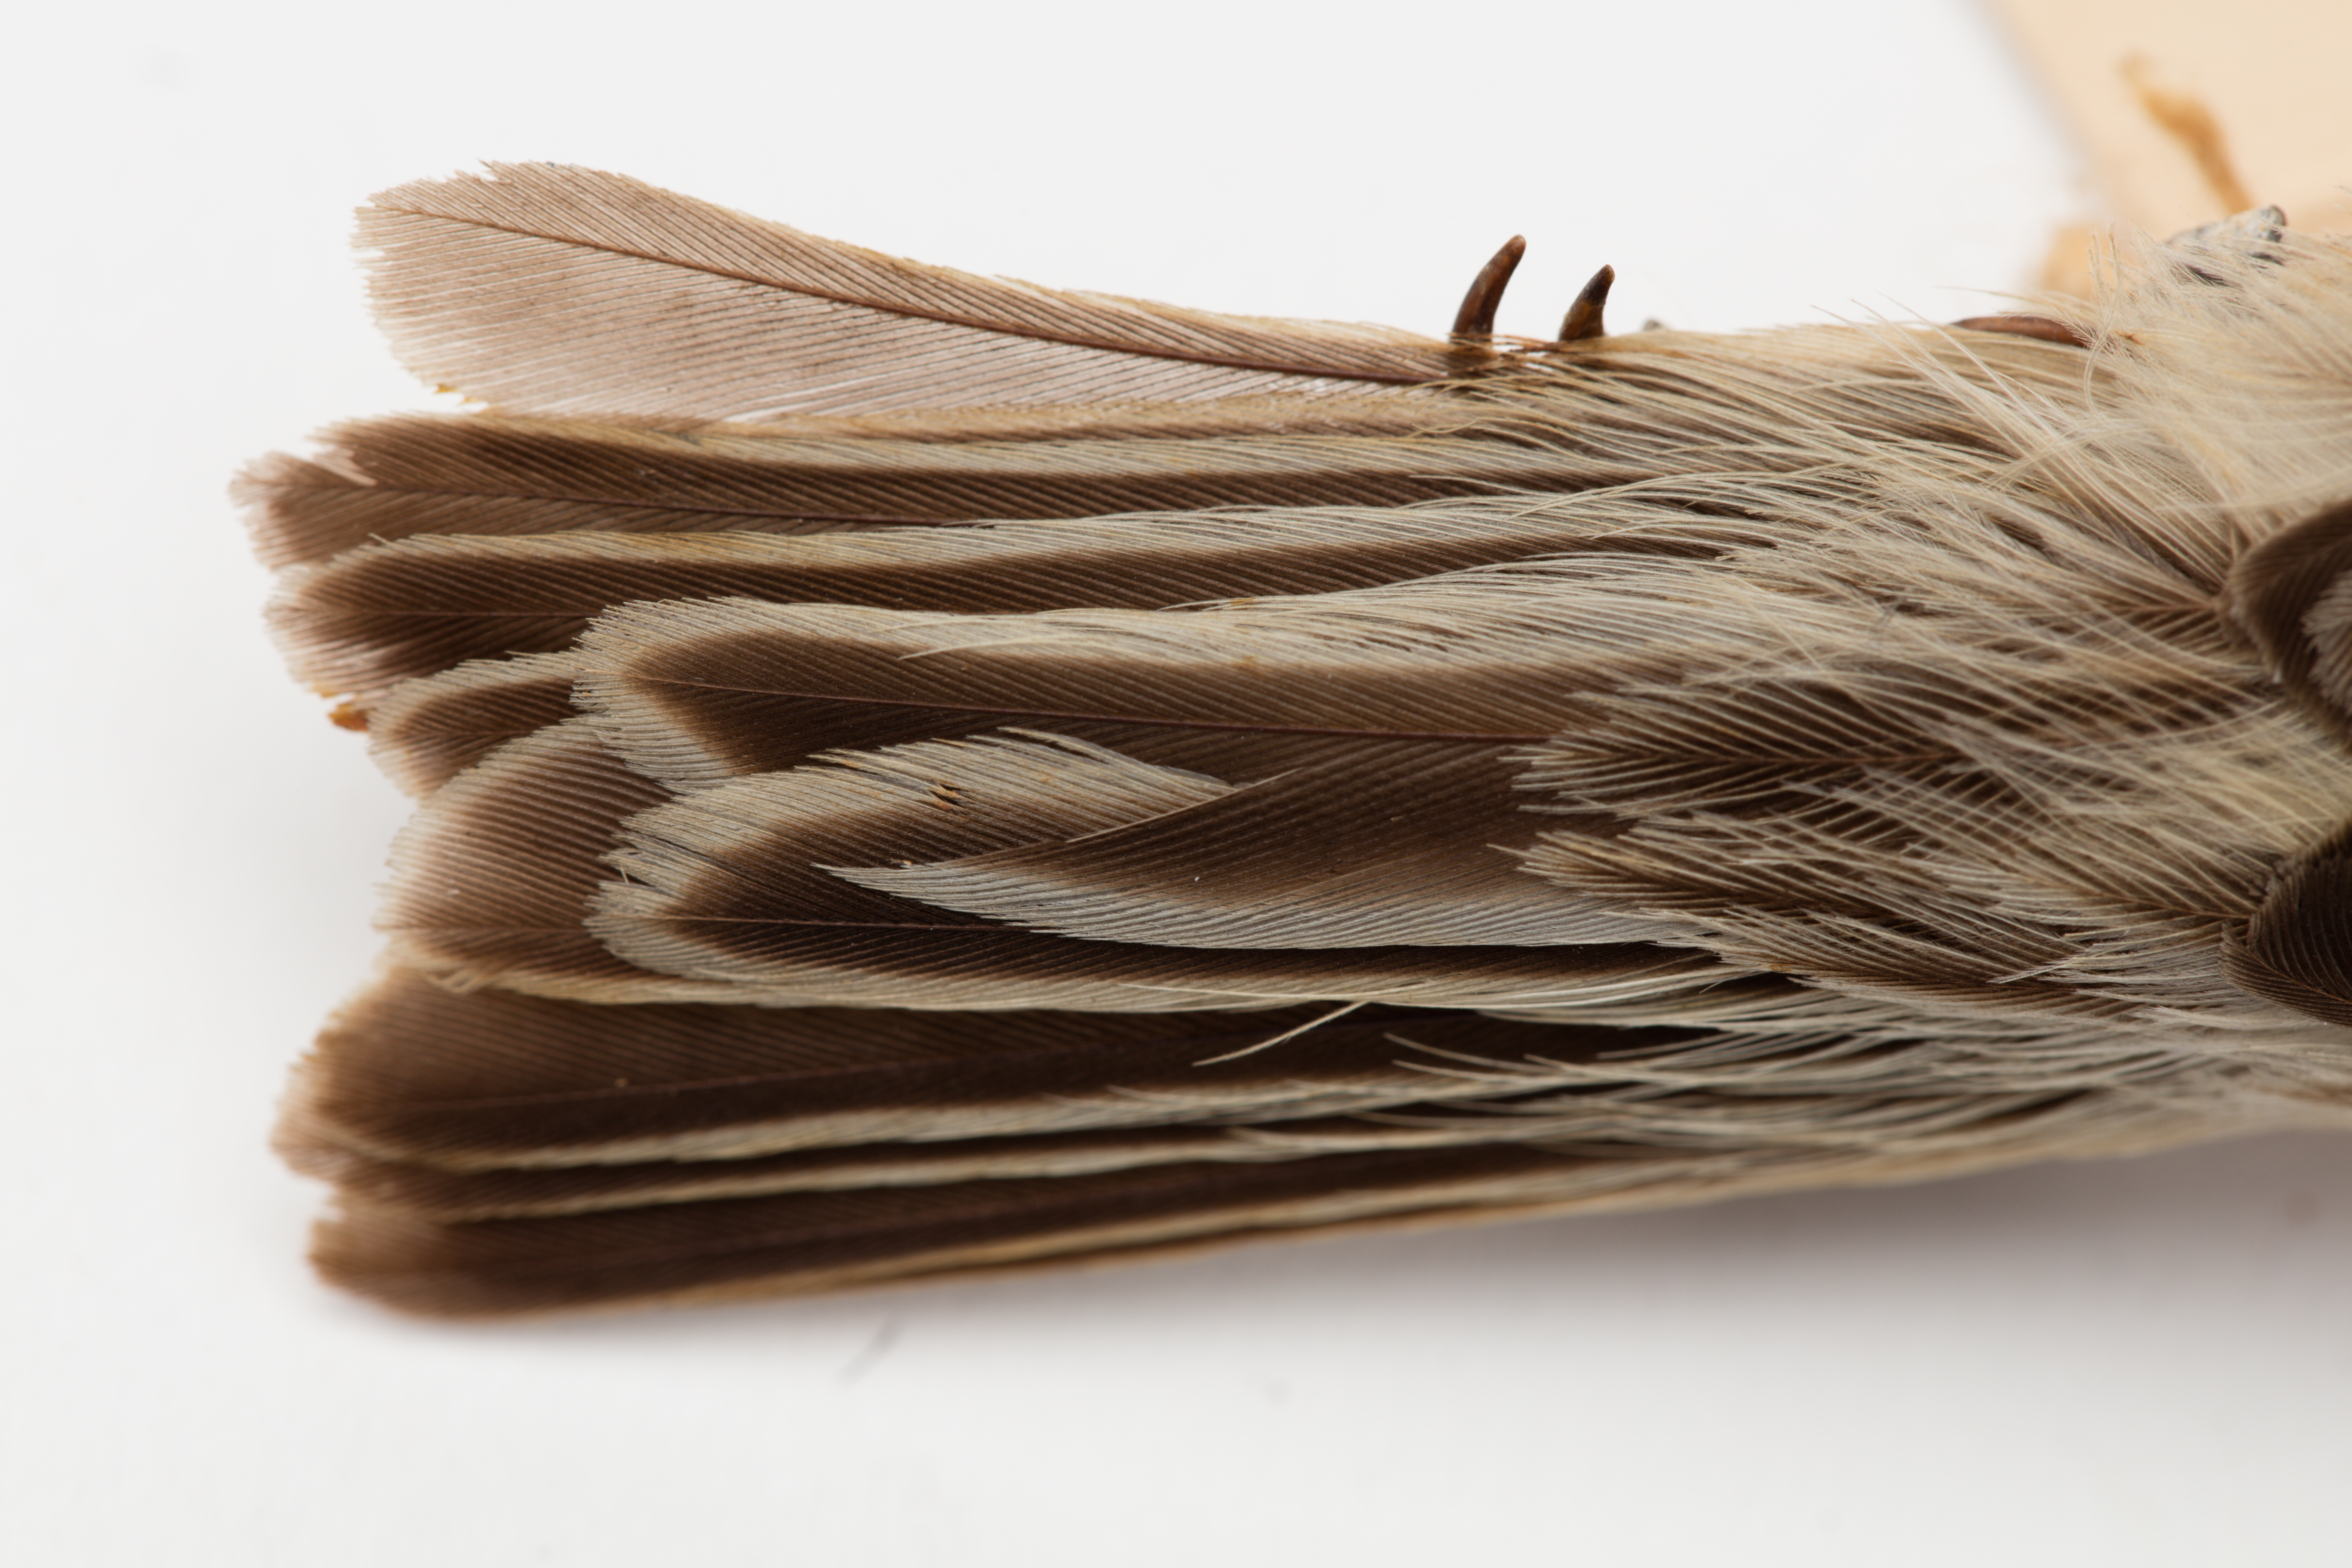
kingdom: Animalia
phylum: Chordata
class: Aves
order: Passeriformes
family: Remizidae
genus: Remiz
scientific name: Remiz pendulinus
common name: Eurasian penduline tit
